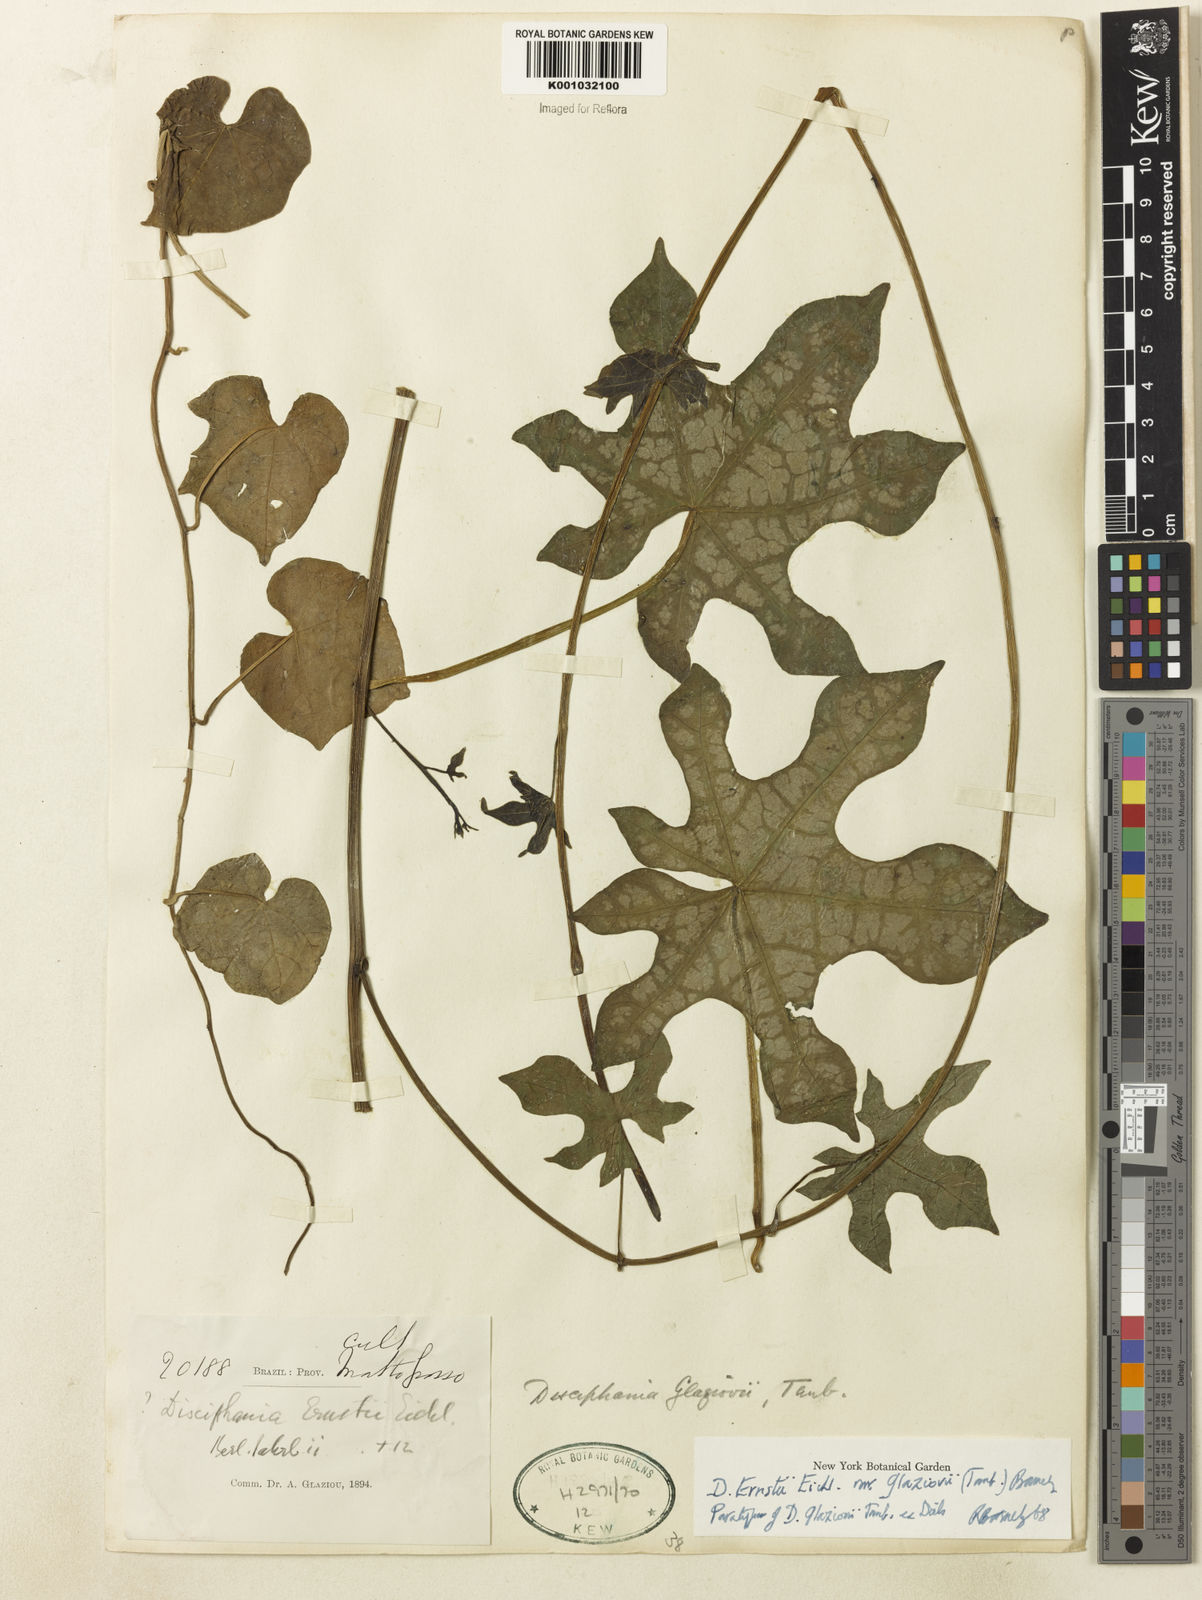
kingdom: Plantae
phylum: Tracheophyta
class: Magnoliopsida
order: Ranunculales
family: Menispermaceae
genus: Disciphania
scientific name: Disciphania ernstii
